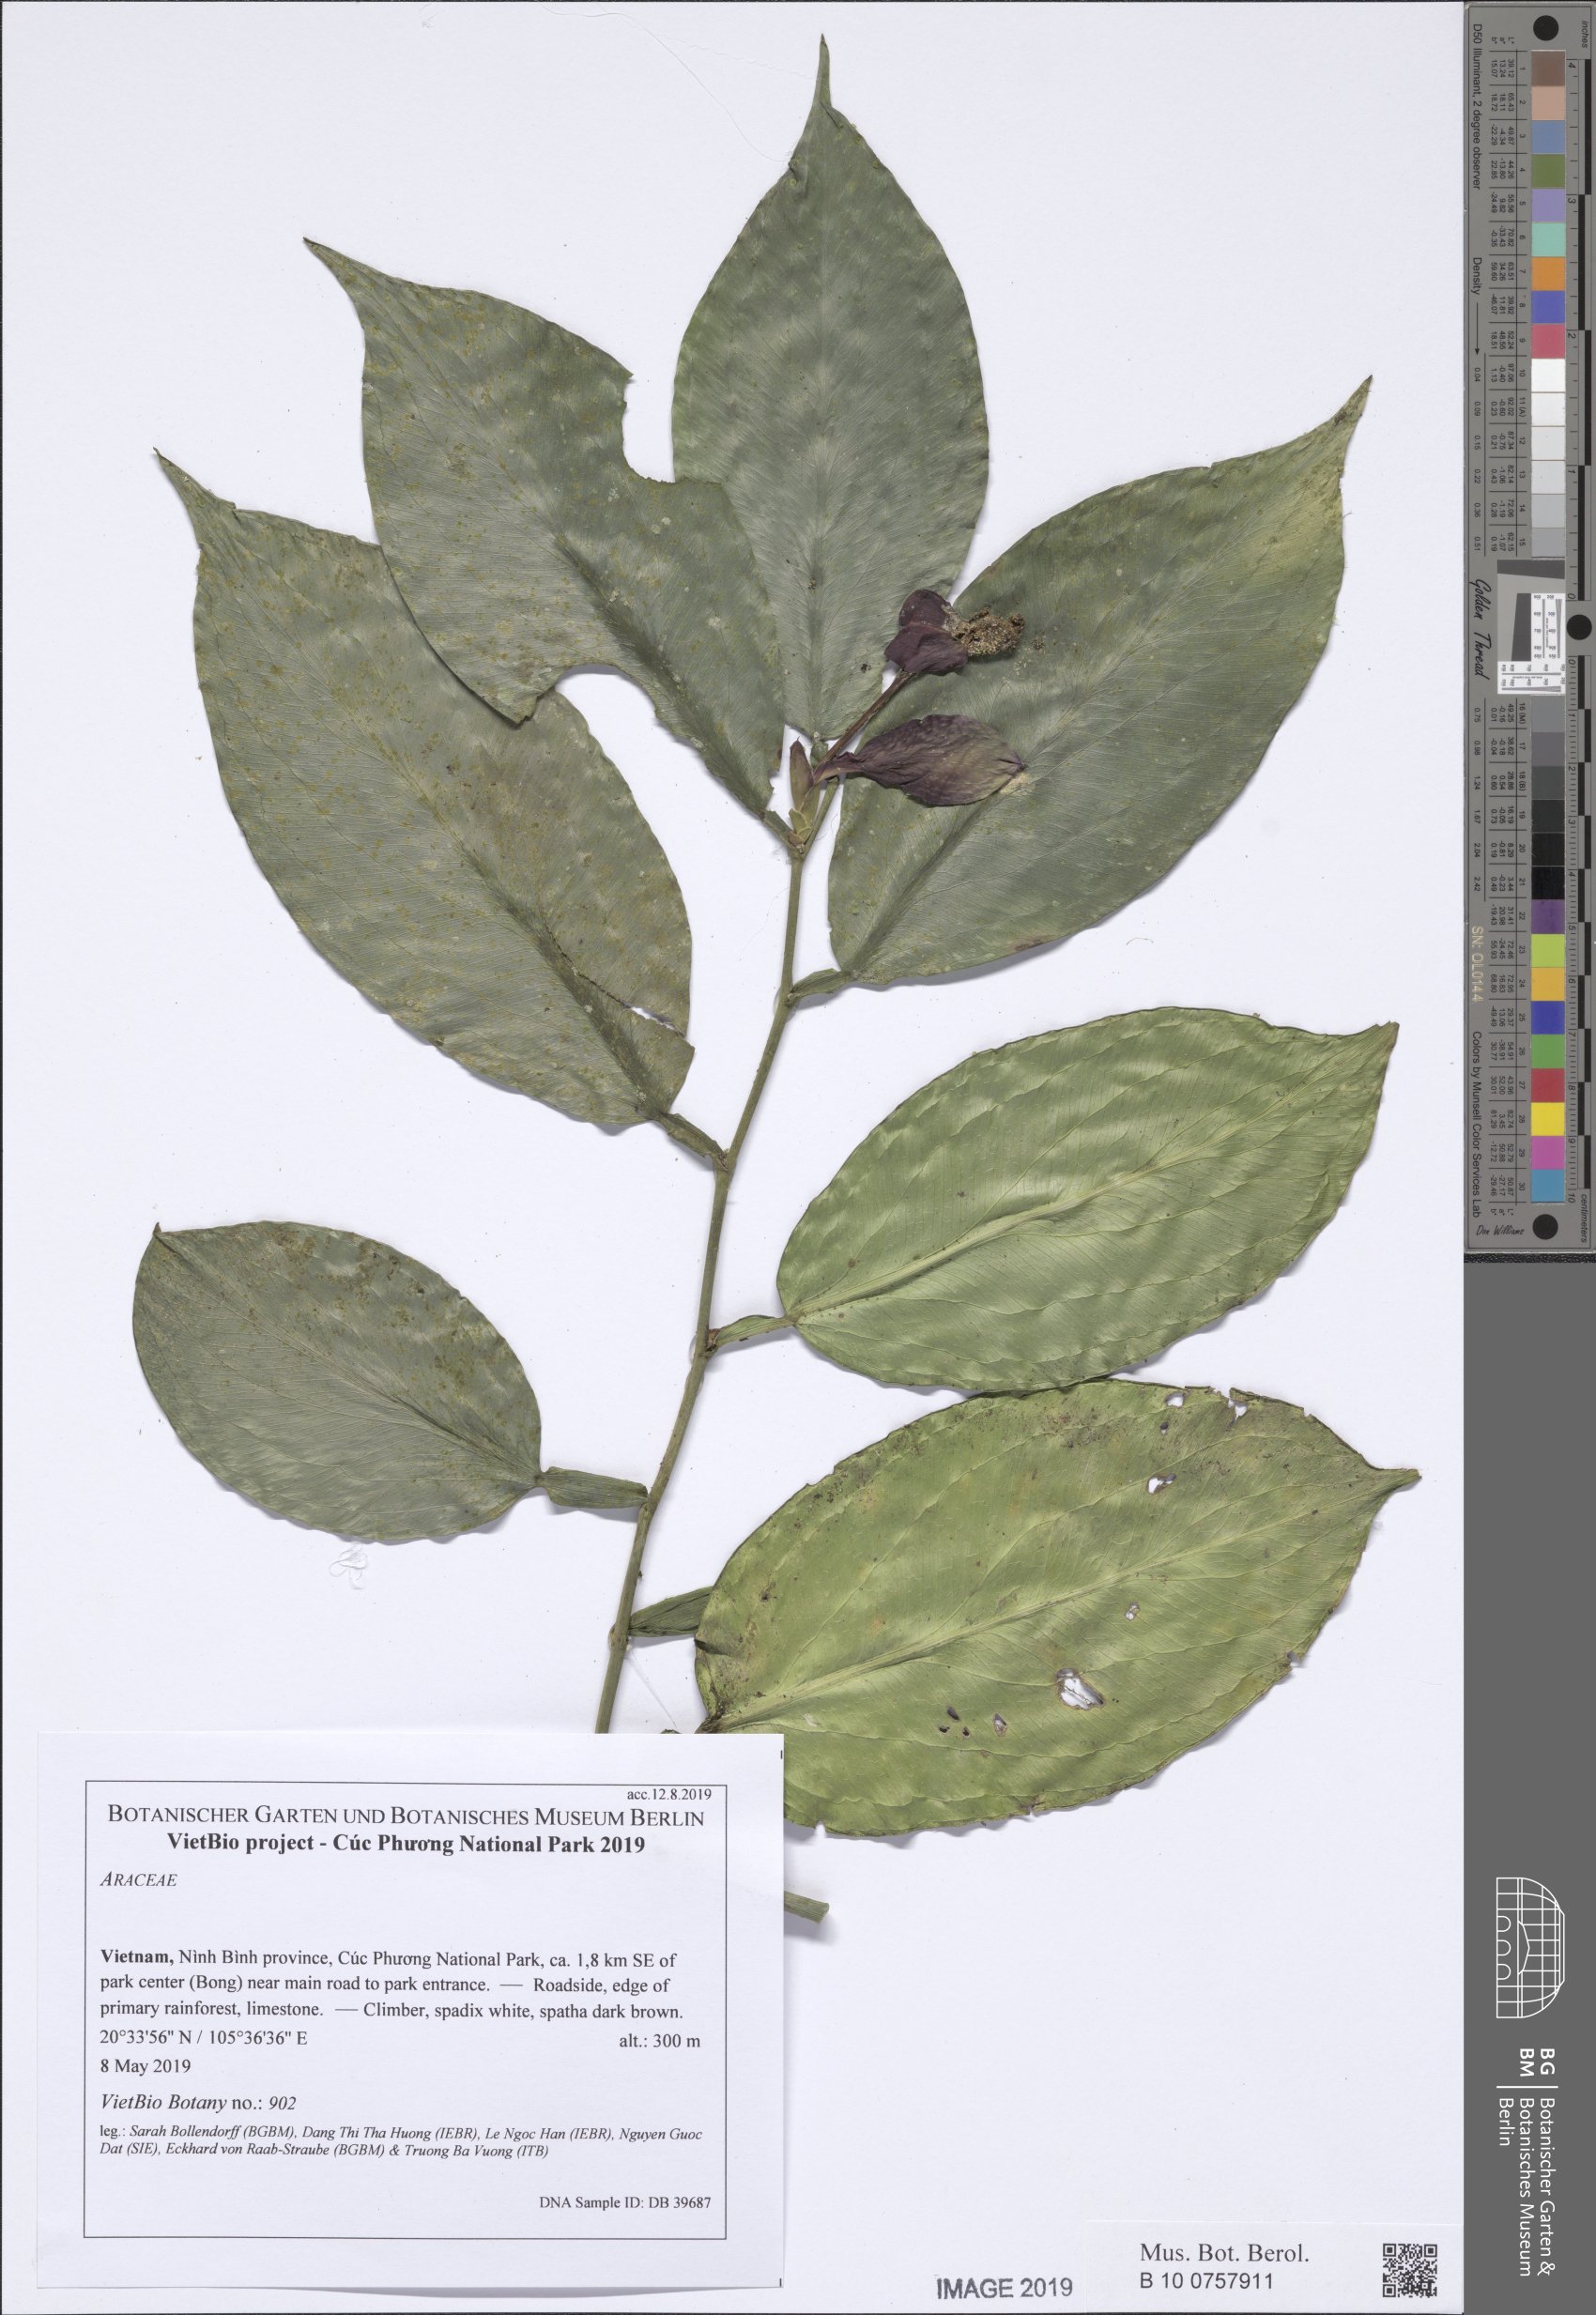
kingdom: Plantae
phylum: Tracheophyta
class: Liliopsida
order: Alismatales
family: Araceae
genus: Pothos
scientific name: Pothos dzui
